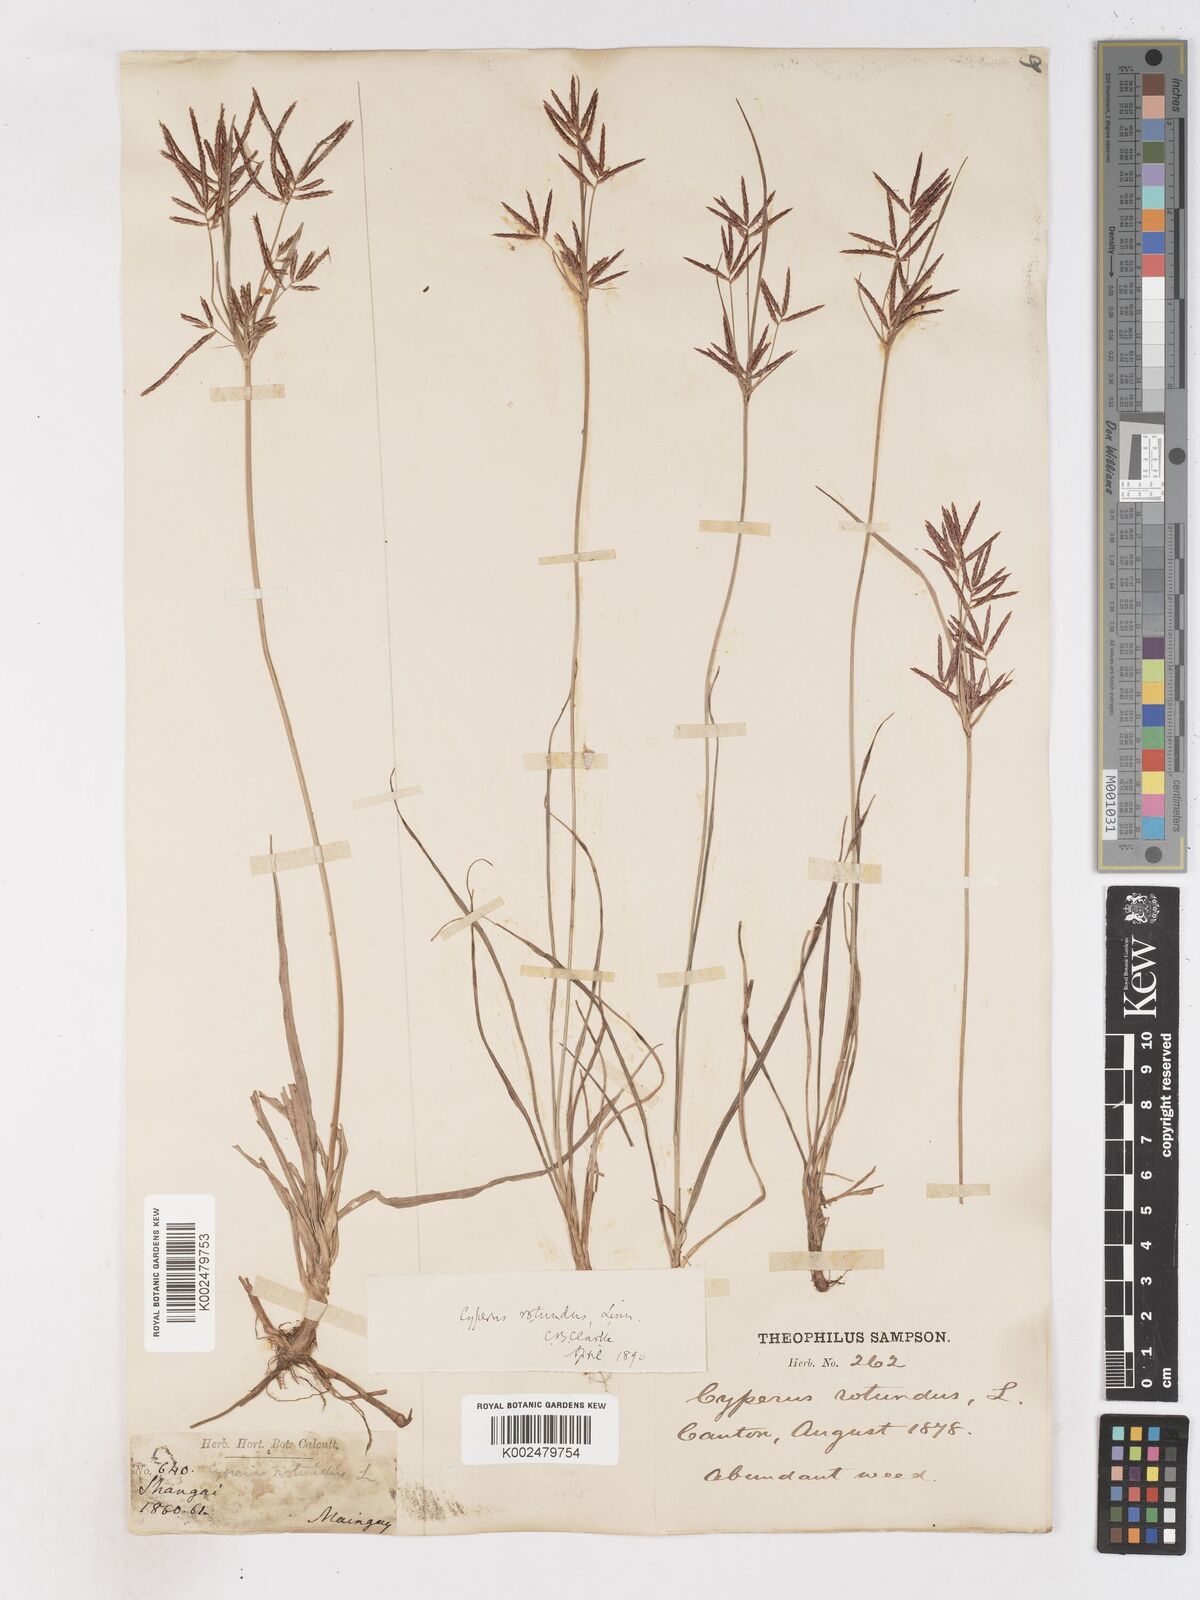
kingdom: Plantae
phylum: Tracheophyta
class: Liliopsida
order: Poales
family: Cyperaceae
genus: Cyperus
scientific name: Cyperus rotundus
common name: Nutgrass
